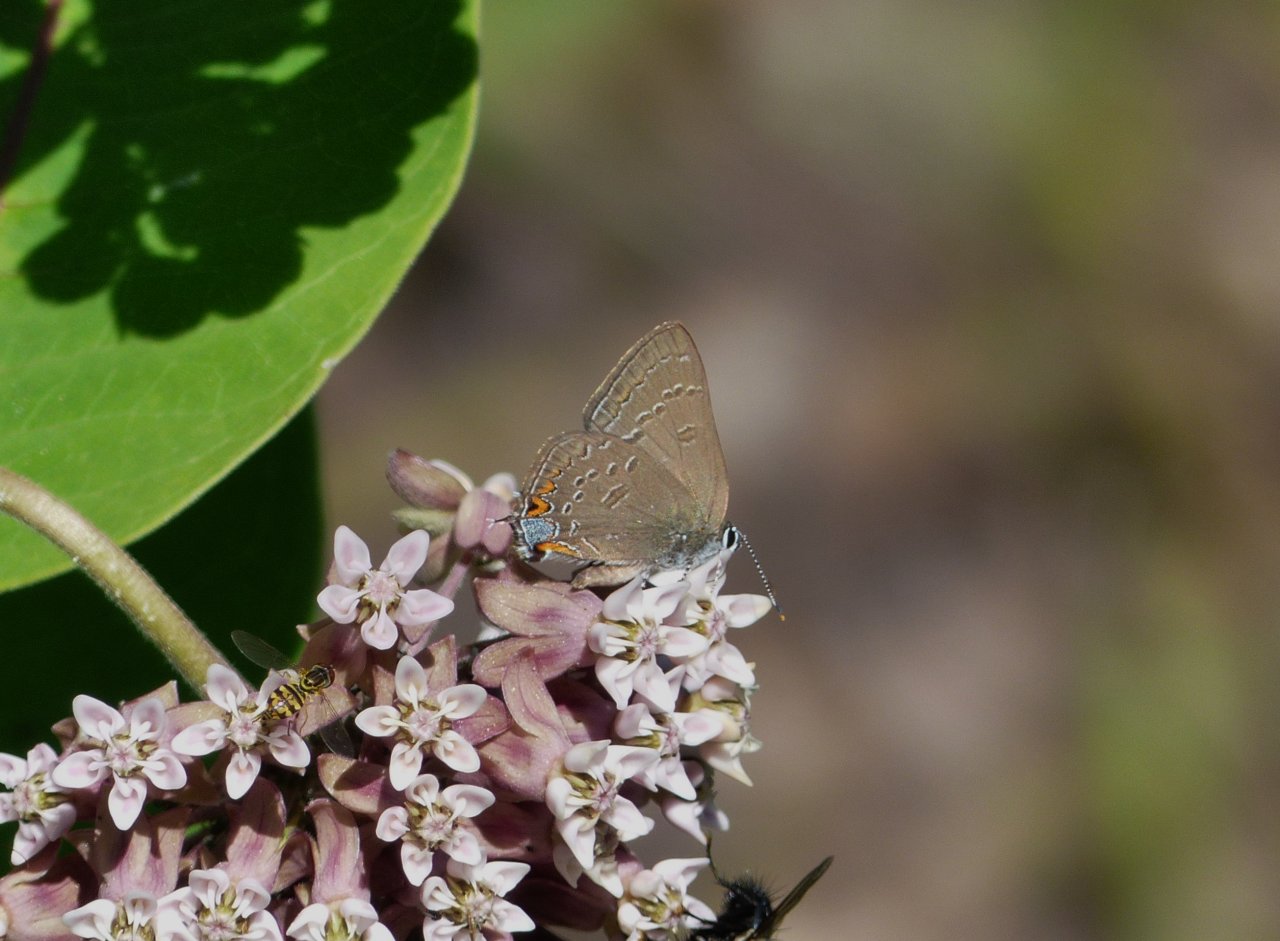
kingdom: Animalia
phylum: Arthropoda
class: Insecta
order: Lepidoptera
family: Lycaenidae
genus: Satyrium
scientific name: Satyrium edwardsii
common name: Edwards' Hairstreak
